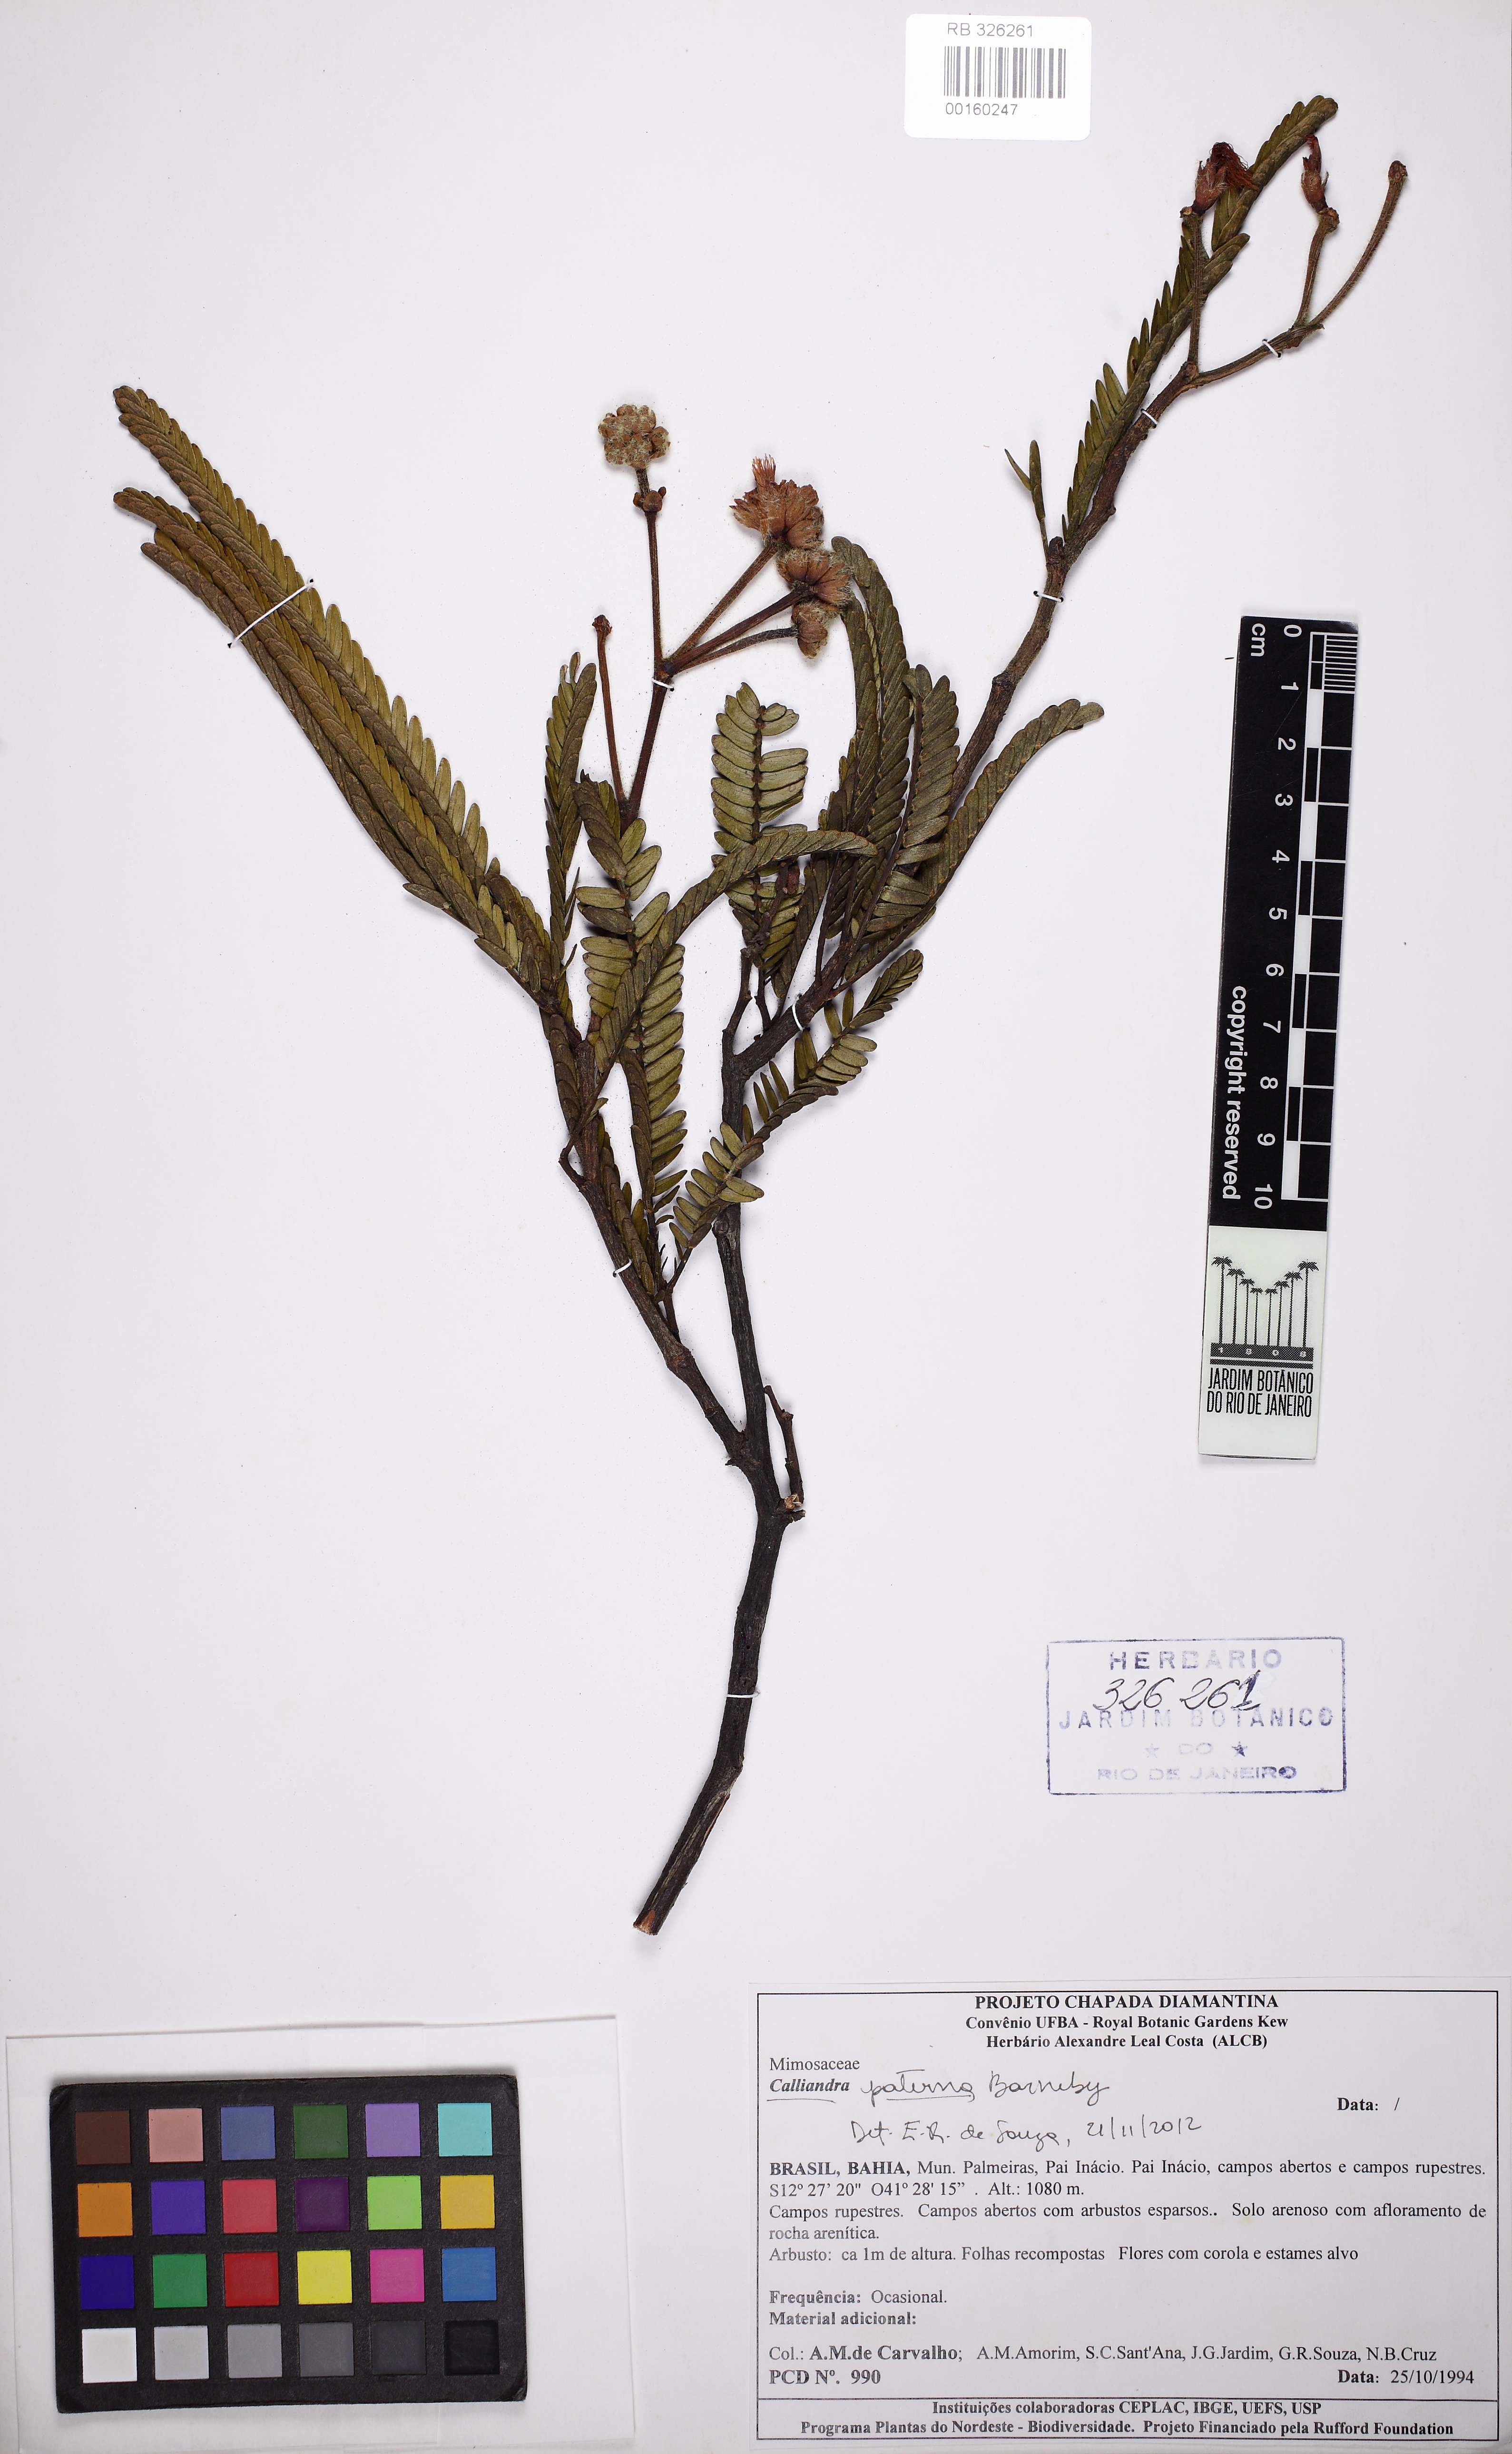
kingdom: Plantae
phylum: Tracheophyta
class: Magnoliopsida
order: Fabales
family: Fabaceae
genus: Calliandra
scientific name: Calliandra paterna
